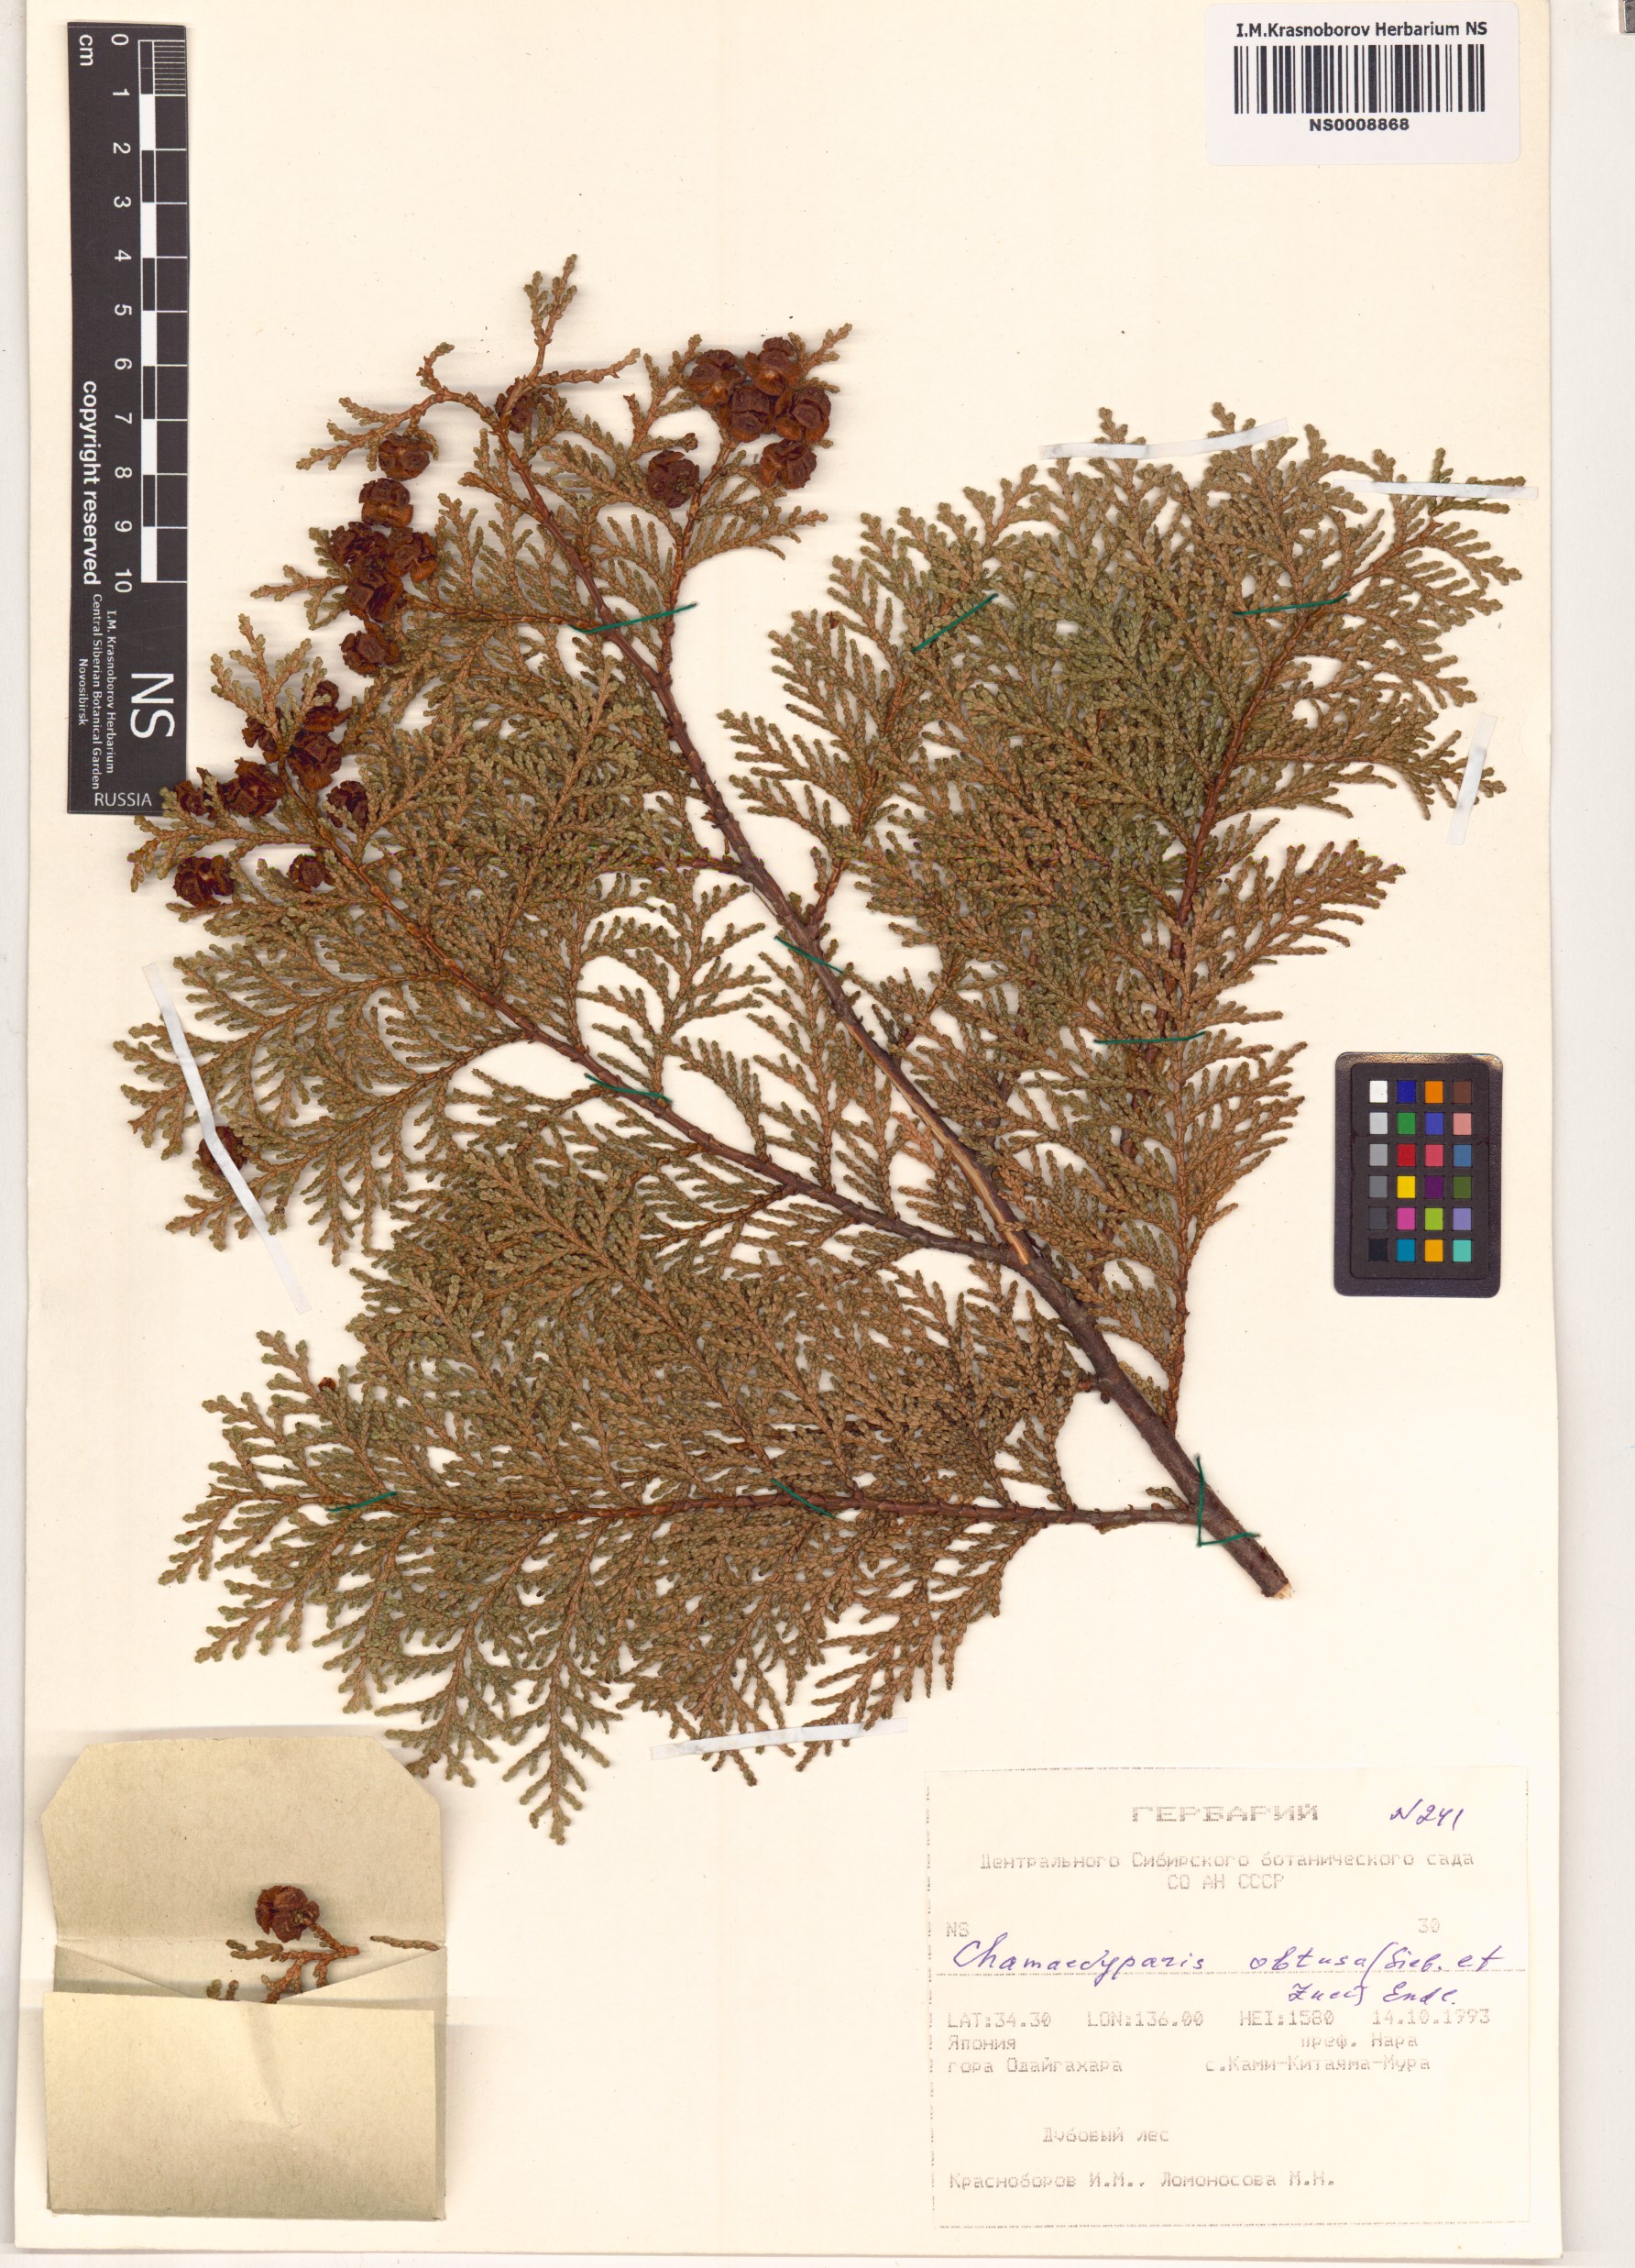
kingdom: Plantae
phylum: Tracheophyta
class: Pinopsida
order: Pinales
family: Cupressaceae
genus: Chamaecyparis
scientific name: Chamaecyparis obtusa
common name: Hinoki false cypress
